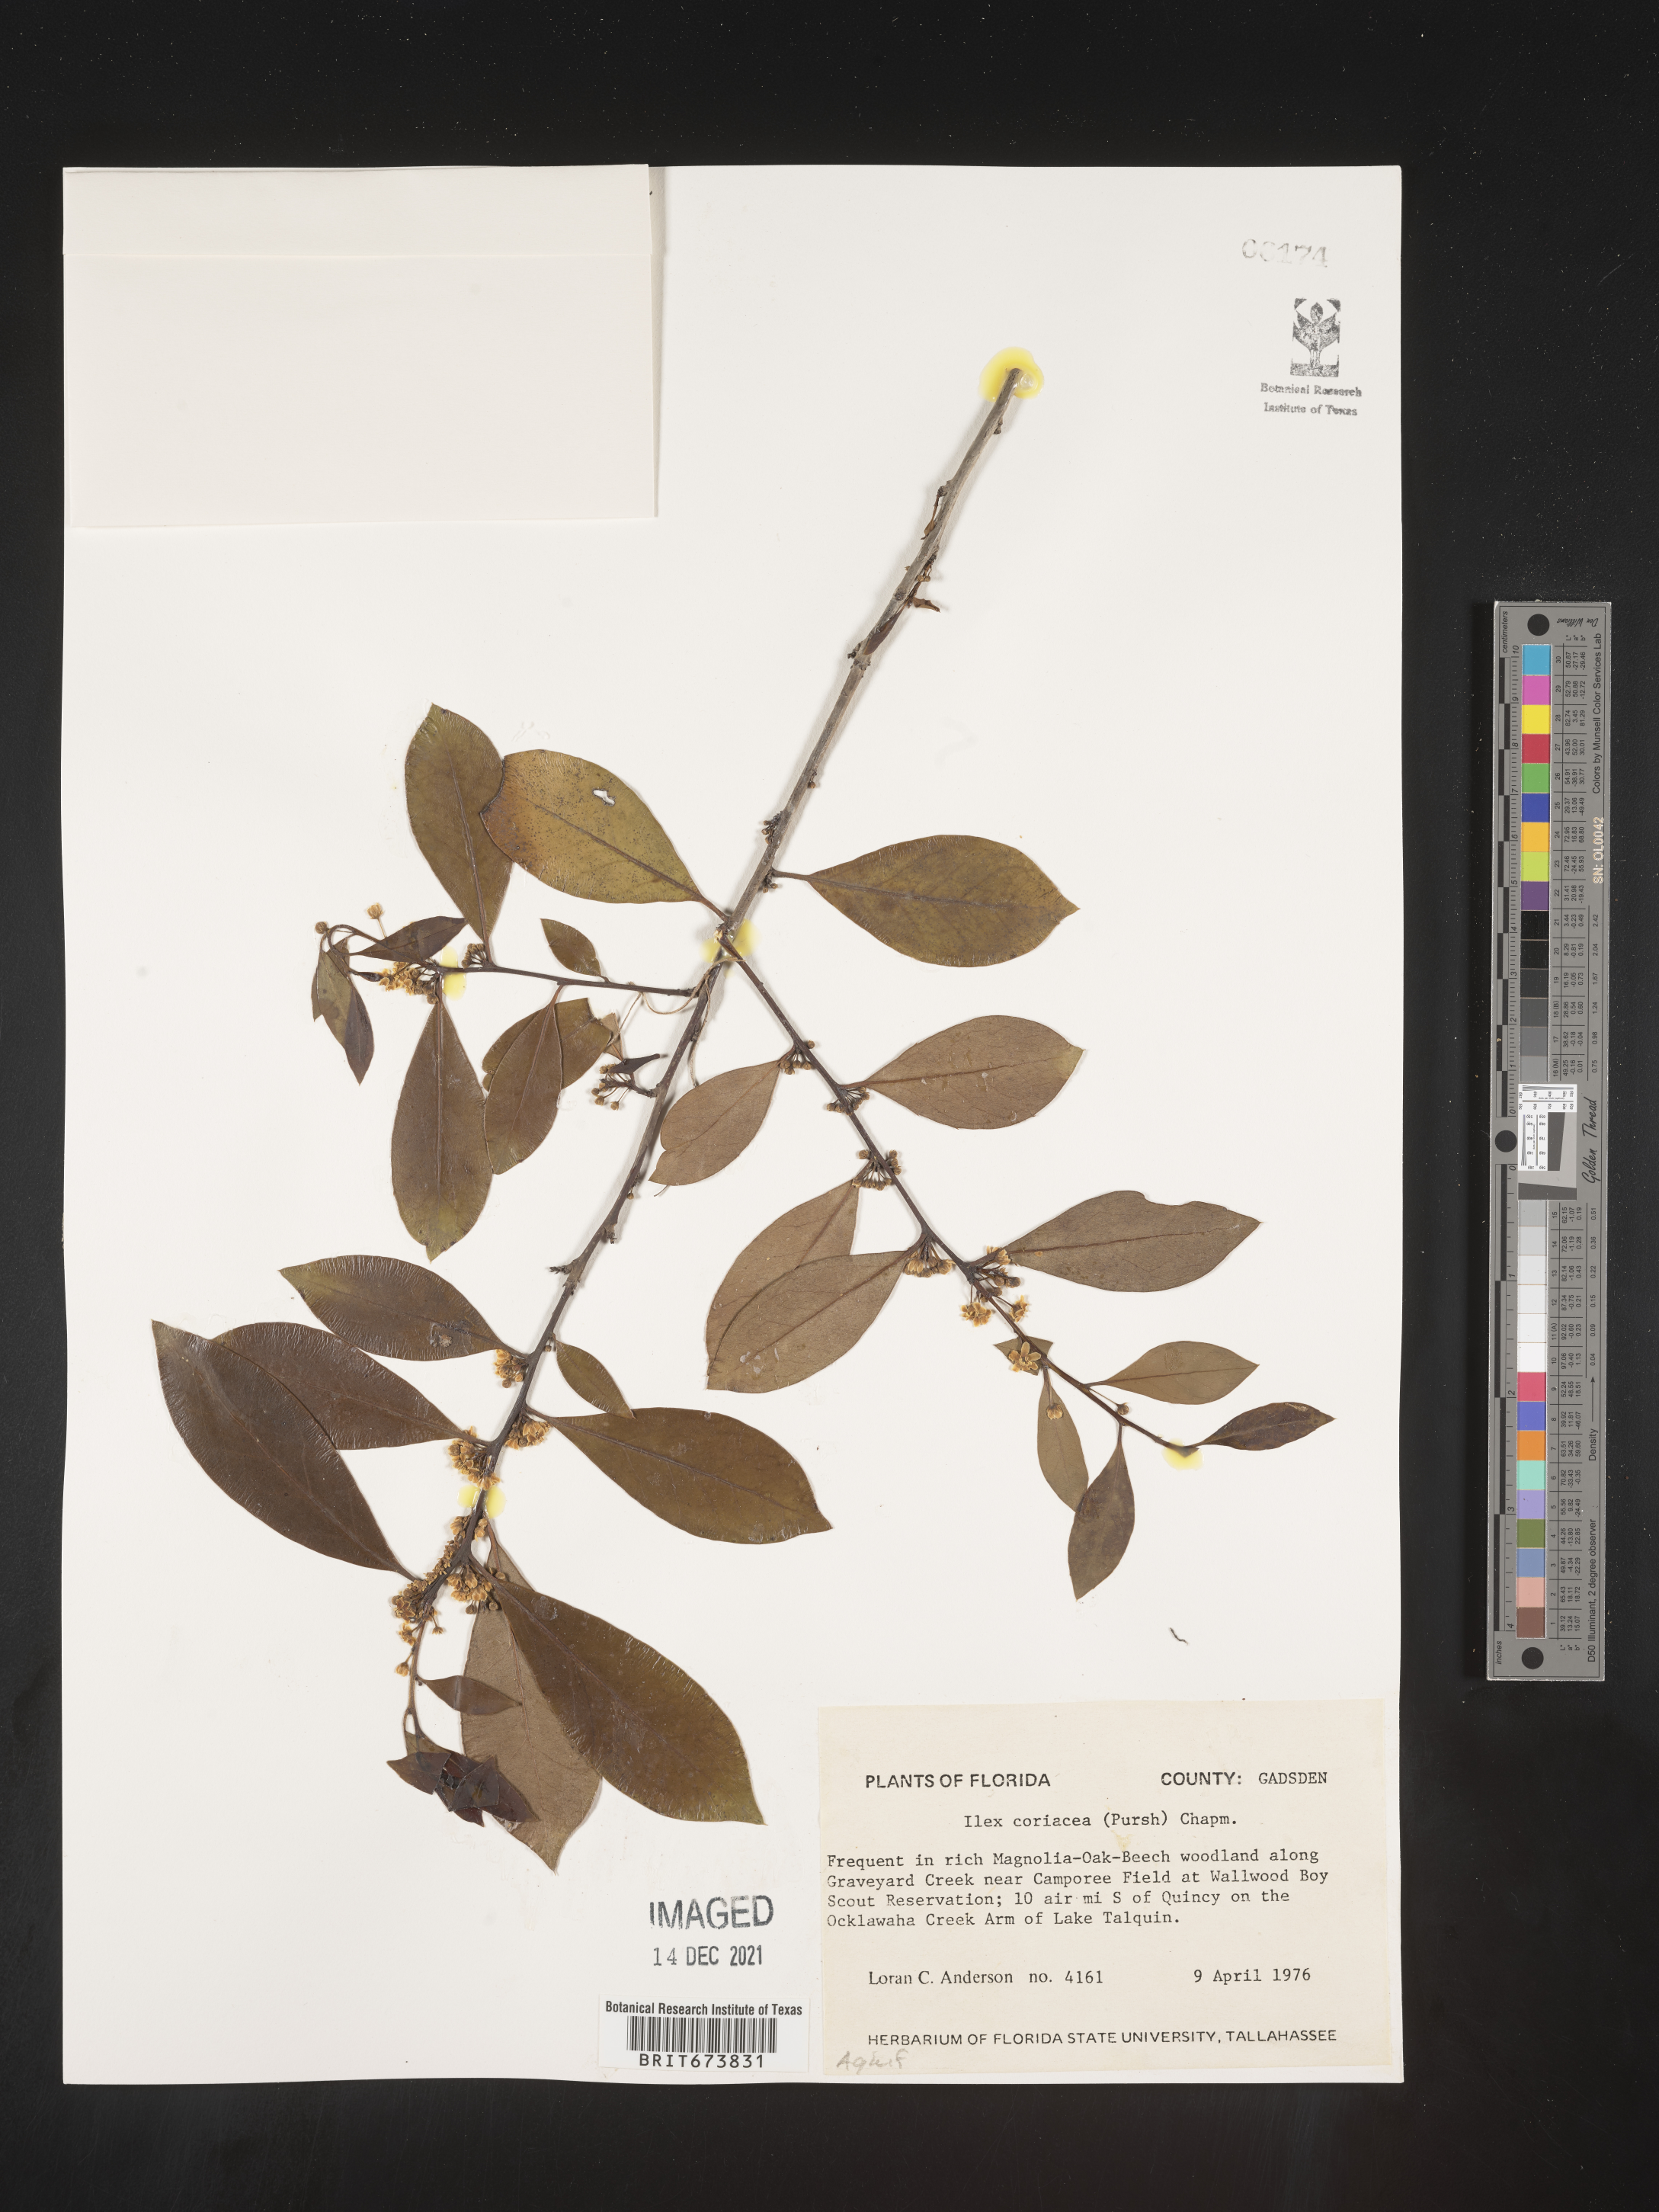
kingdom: Plantae
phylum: Tracheophyta
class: Magnoliopsida
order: Aquifoliales
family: Aquifoliaceae
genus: Ilex
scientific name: Ilex coriacea
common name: Sweet gallberry
